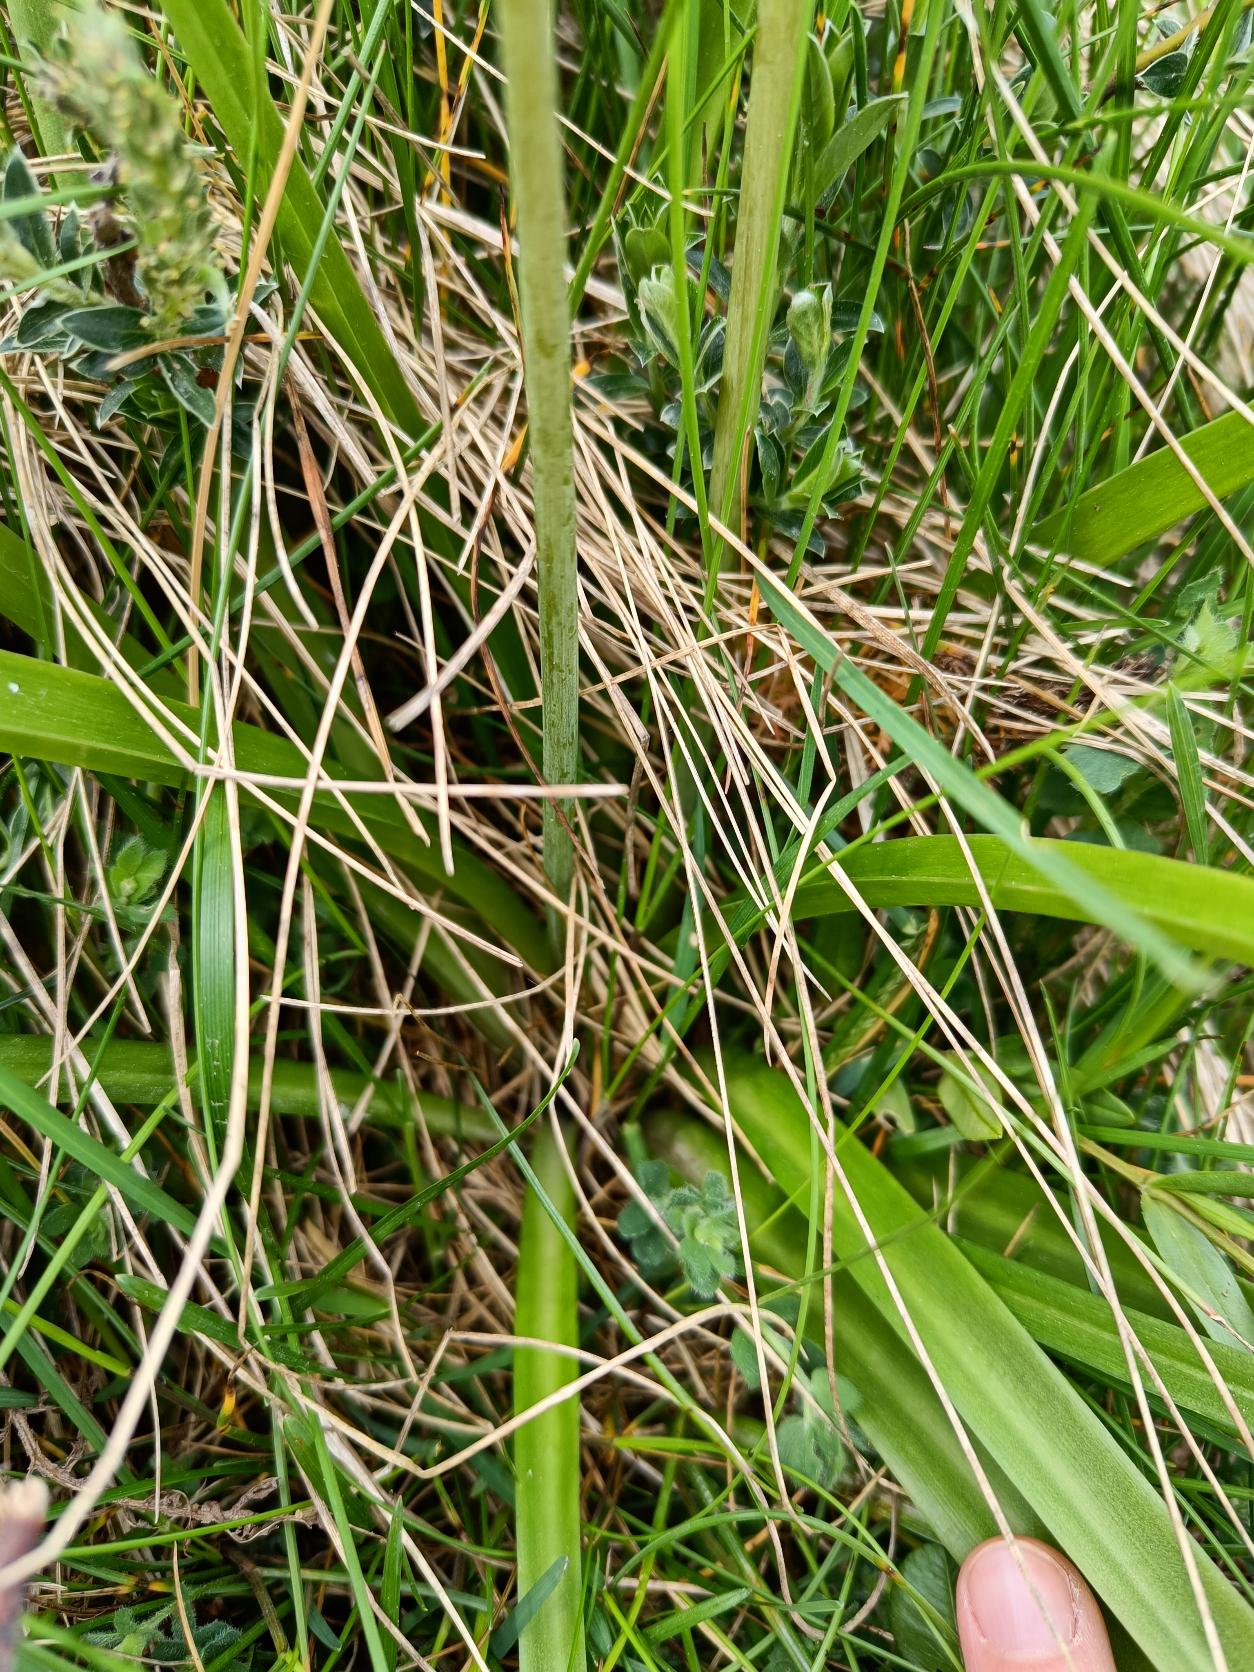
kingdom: Plantae
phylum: Tracheophyta
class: Liliopsida
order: Asparagales
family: Asparagaceae
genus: Hyacinthoides
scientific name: Hyacinthoides massartiana
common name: Hybrid-klokkeskilla
